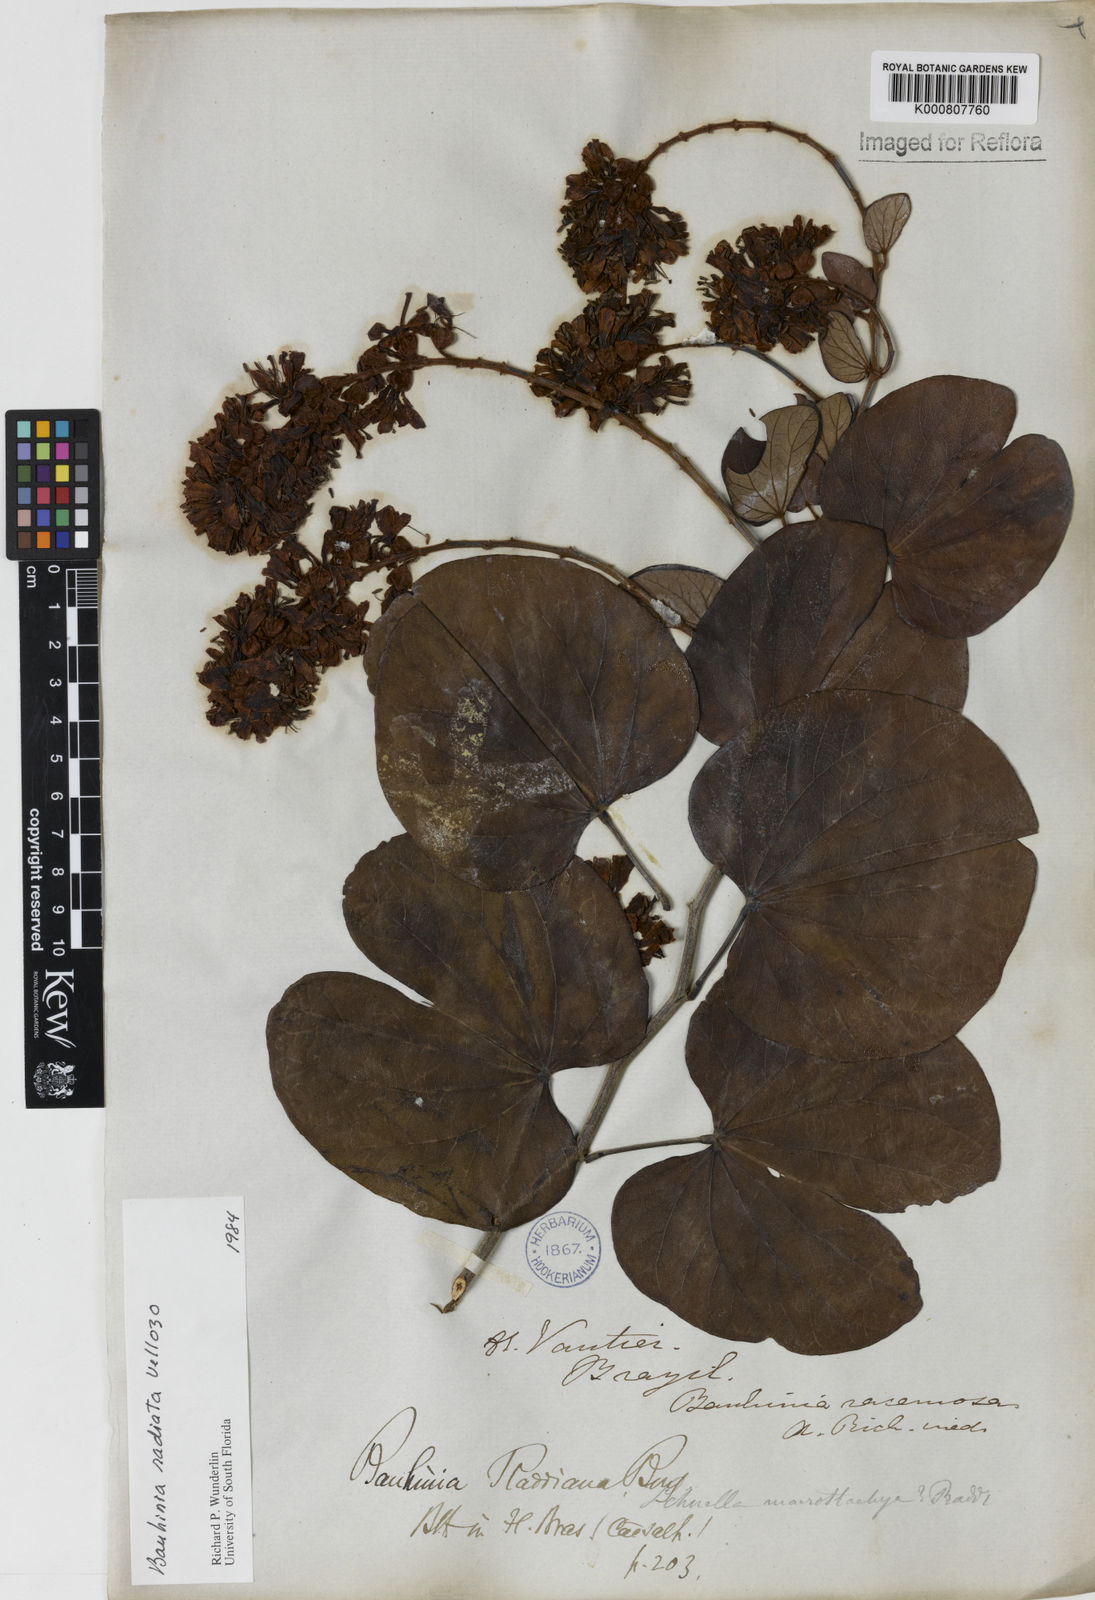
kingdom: Plantae
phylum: Tracheophyta
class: Magnoliopsida
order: Fabales
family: Fabaceae
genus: Schnella
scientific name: Schnella macrostachya
